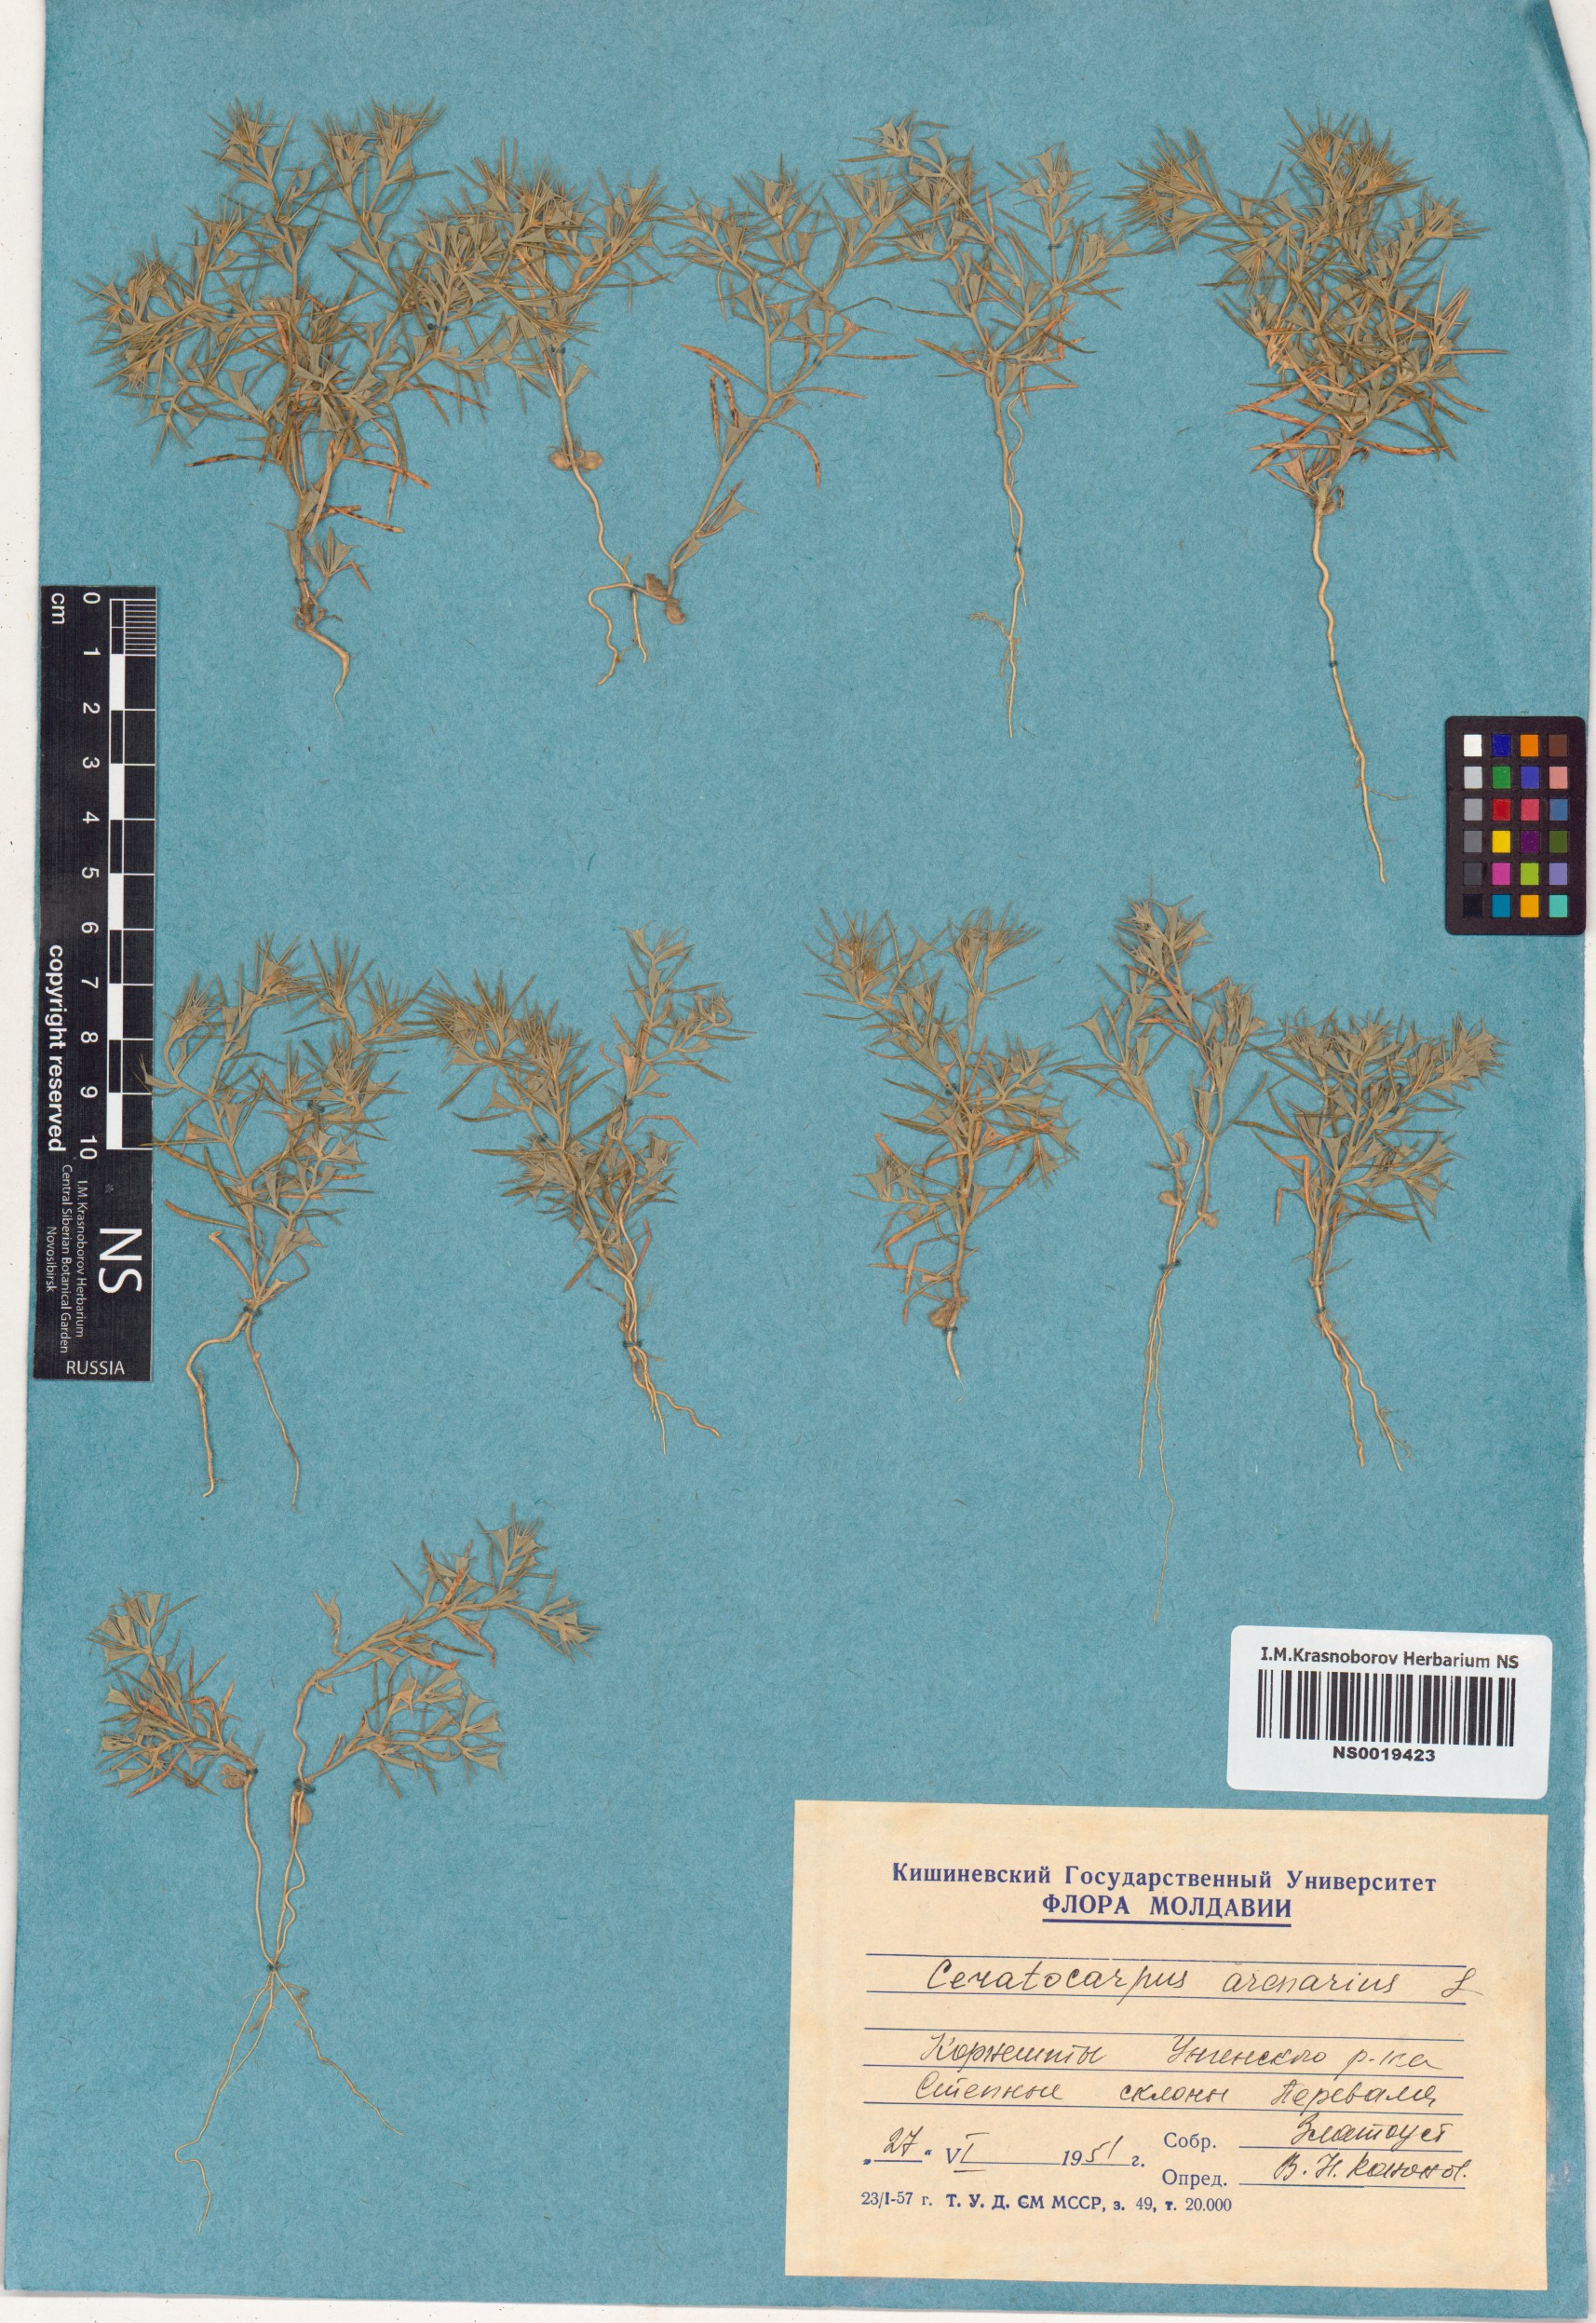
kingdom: Plantae
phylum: Tracheophyta
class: Magnoliopsida
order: Caryophyllales
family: Amaranthaceae
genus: Ceratocarpus
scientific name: Ceratocarpus arenarius
